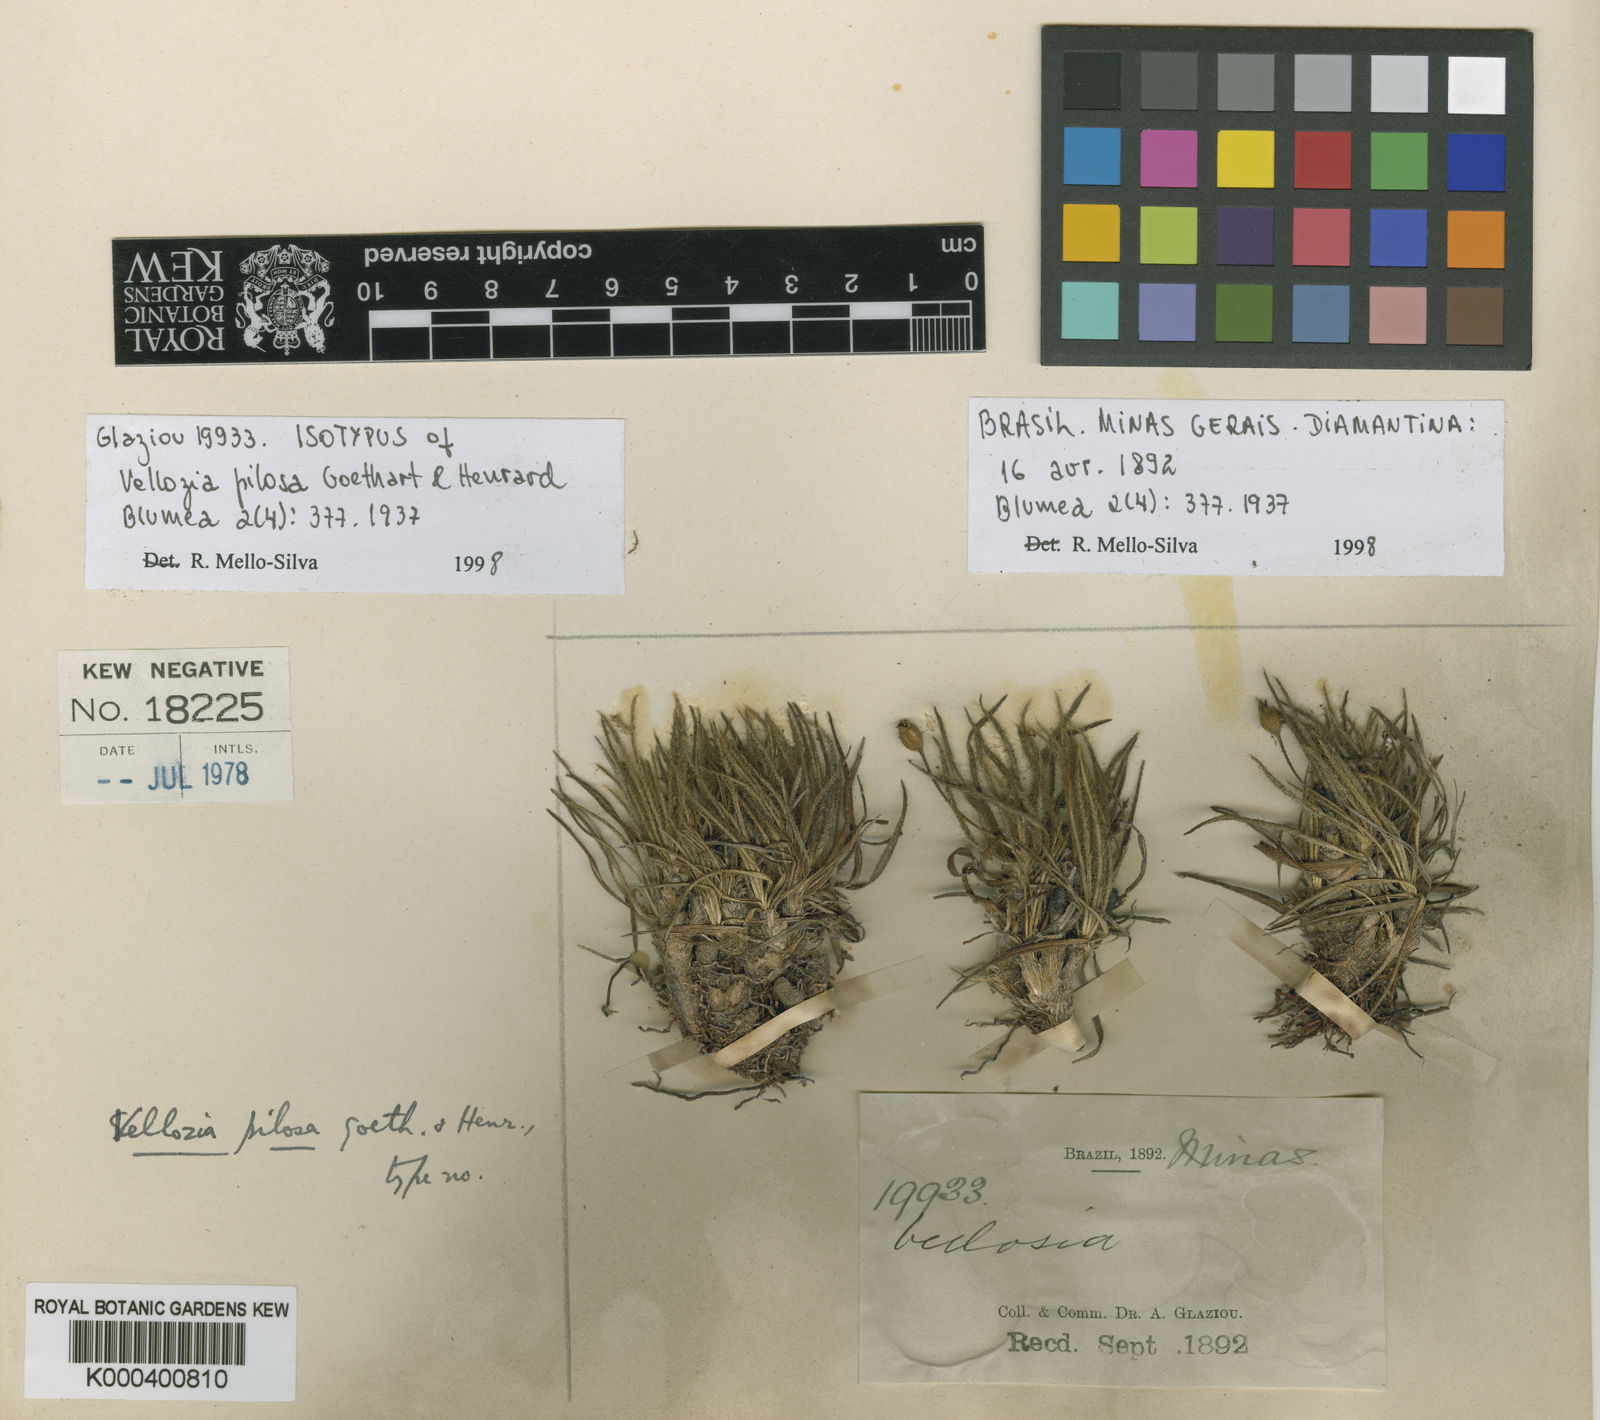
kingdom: Plantae
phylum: Tracheophyta
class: Liliopsida
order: Pandanales
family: Velloziaceae
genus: Vellozia
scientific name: Vellozia pilosa
